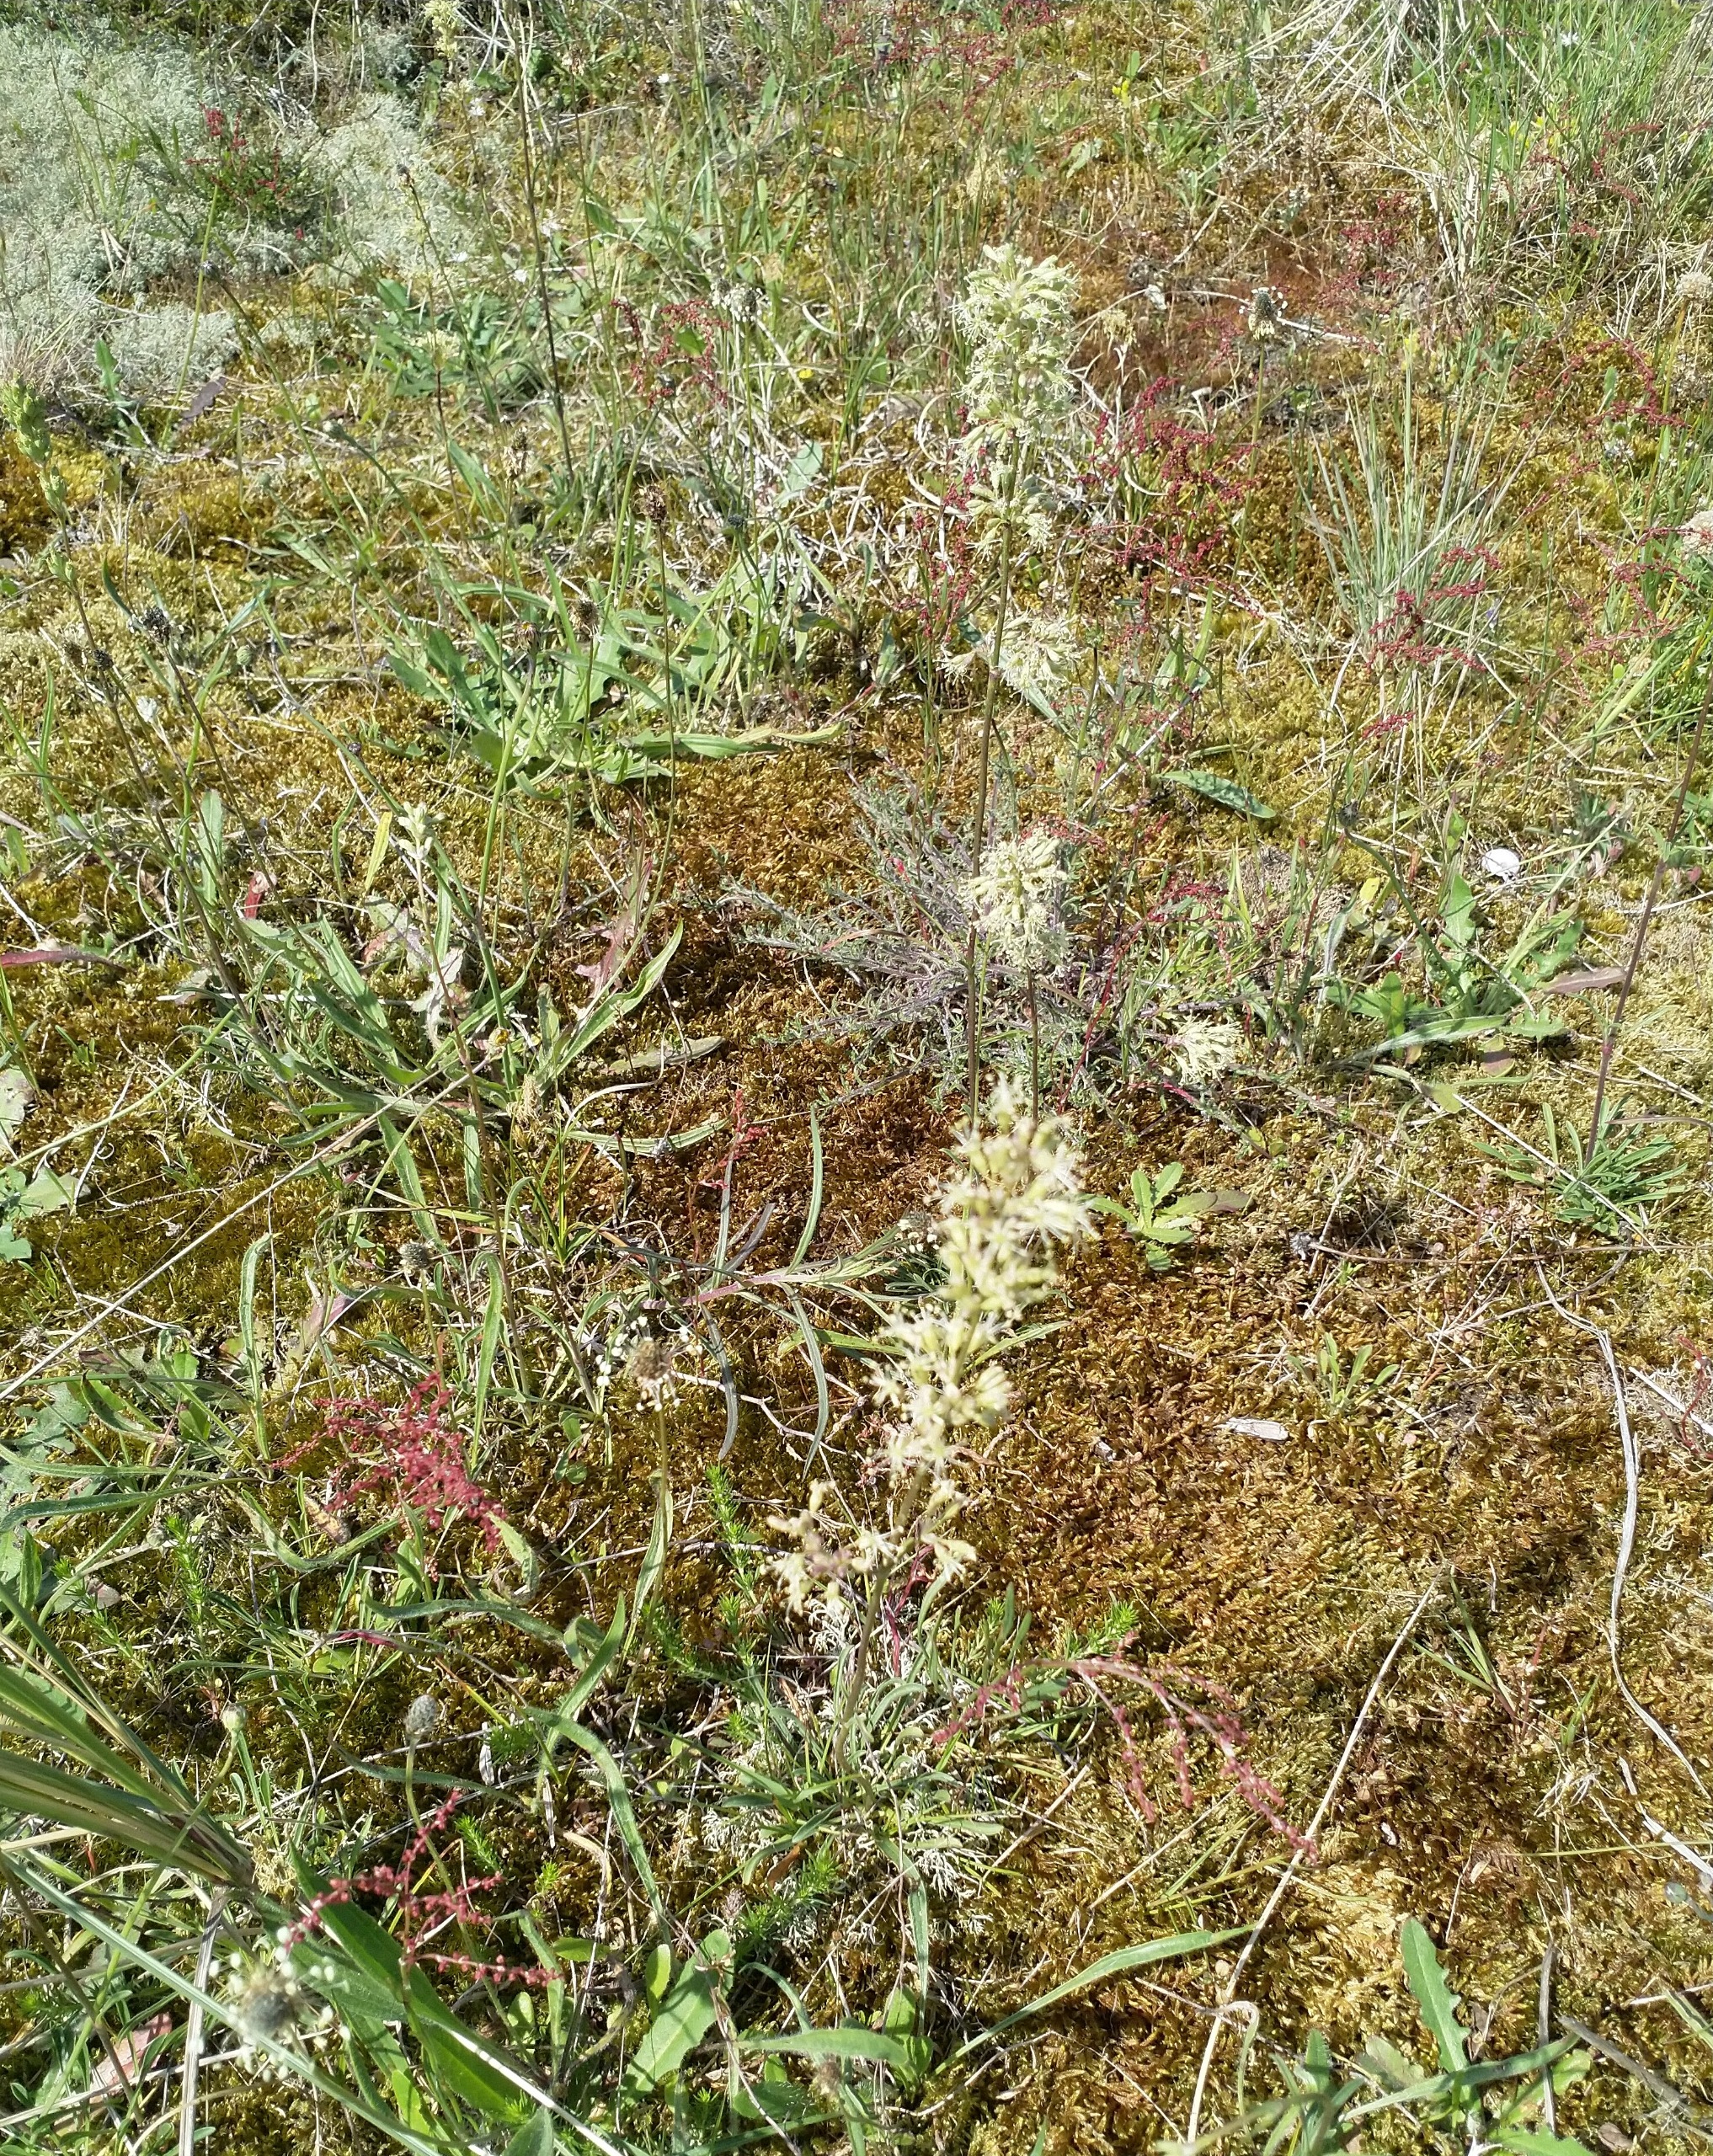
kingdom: Plantae
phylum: Tracheophyta
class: Magnoliopsida
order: Caryophyllales
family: Caryophyllaceae
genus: Silene
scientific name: Silene otites
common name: Klit-limurt
